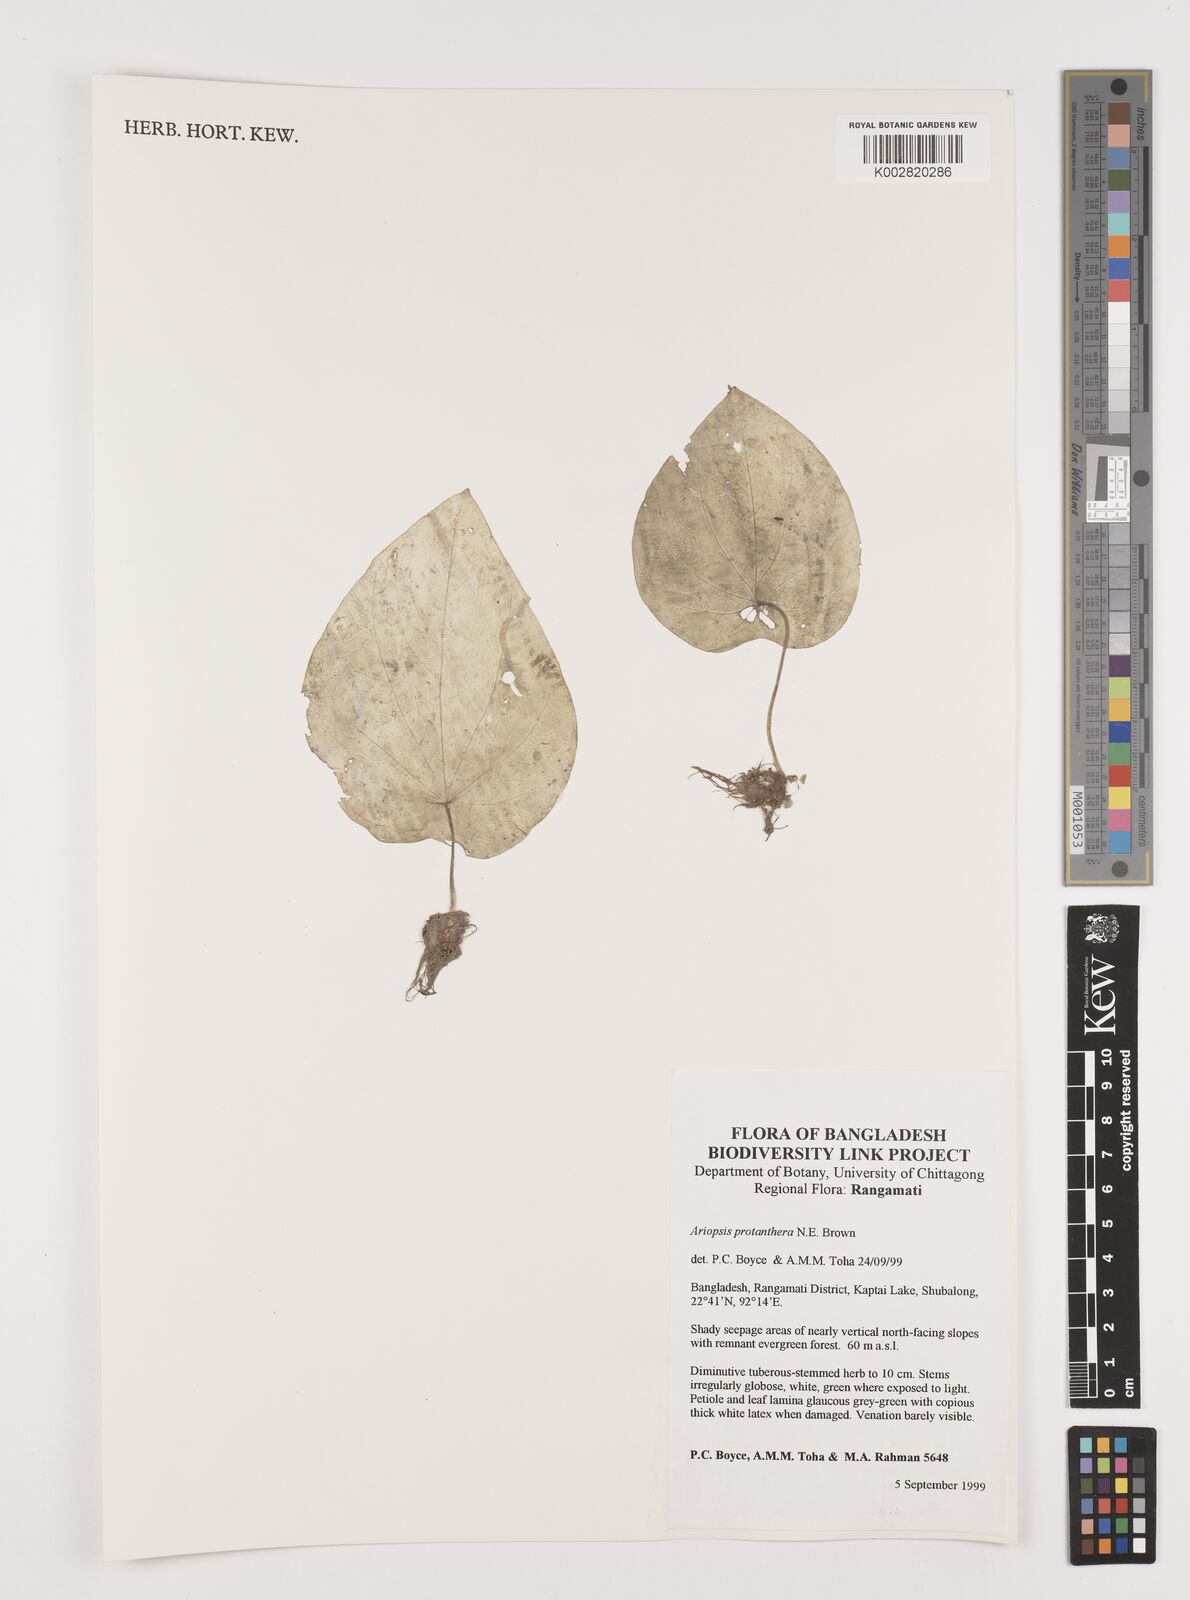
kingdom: Plantae
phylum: Tracheophyta
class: Liliopsida
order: Alismatales
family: Araceae
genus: Ariopsis
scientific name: Ariopsis peltata
